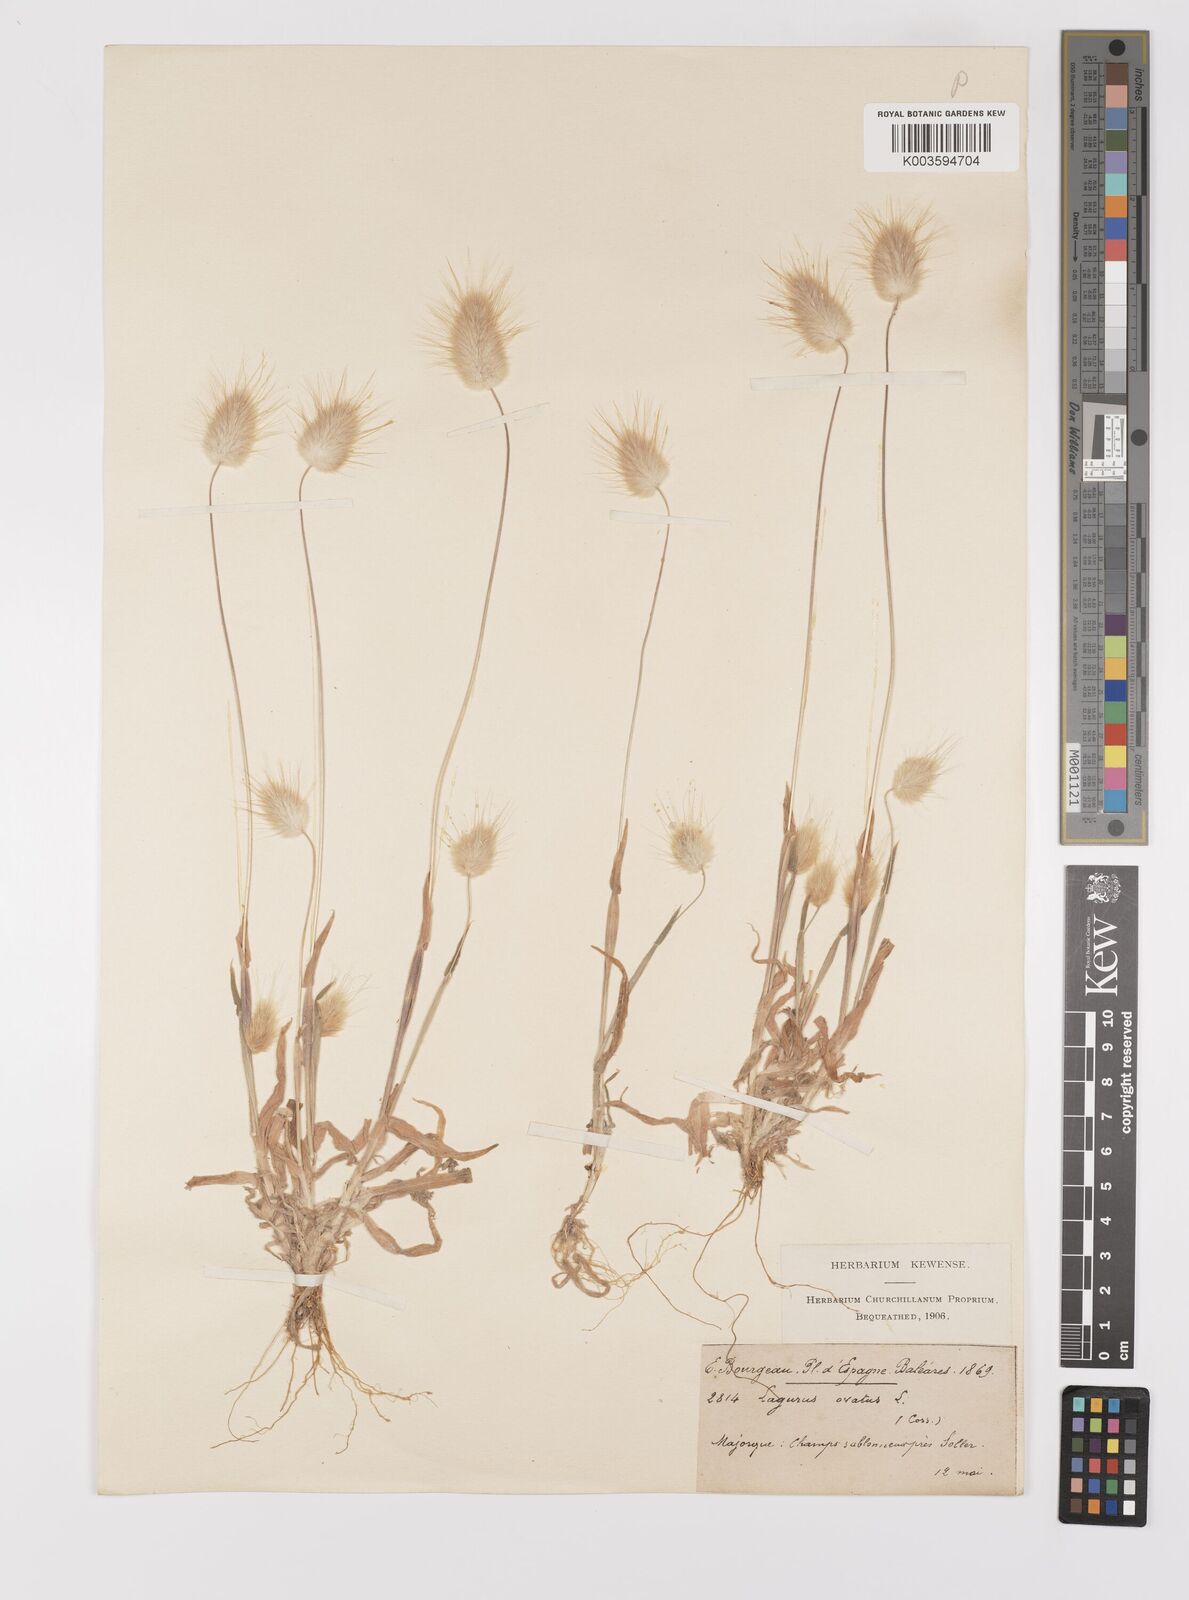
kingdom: Plantae
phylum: Tracheophyta
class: Liliopsida
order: Poales
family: Poaceae
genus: Lagurus
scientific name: Lagurus ovatus
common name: Hare's-tail
